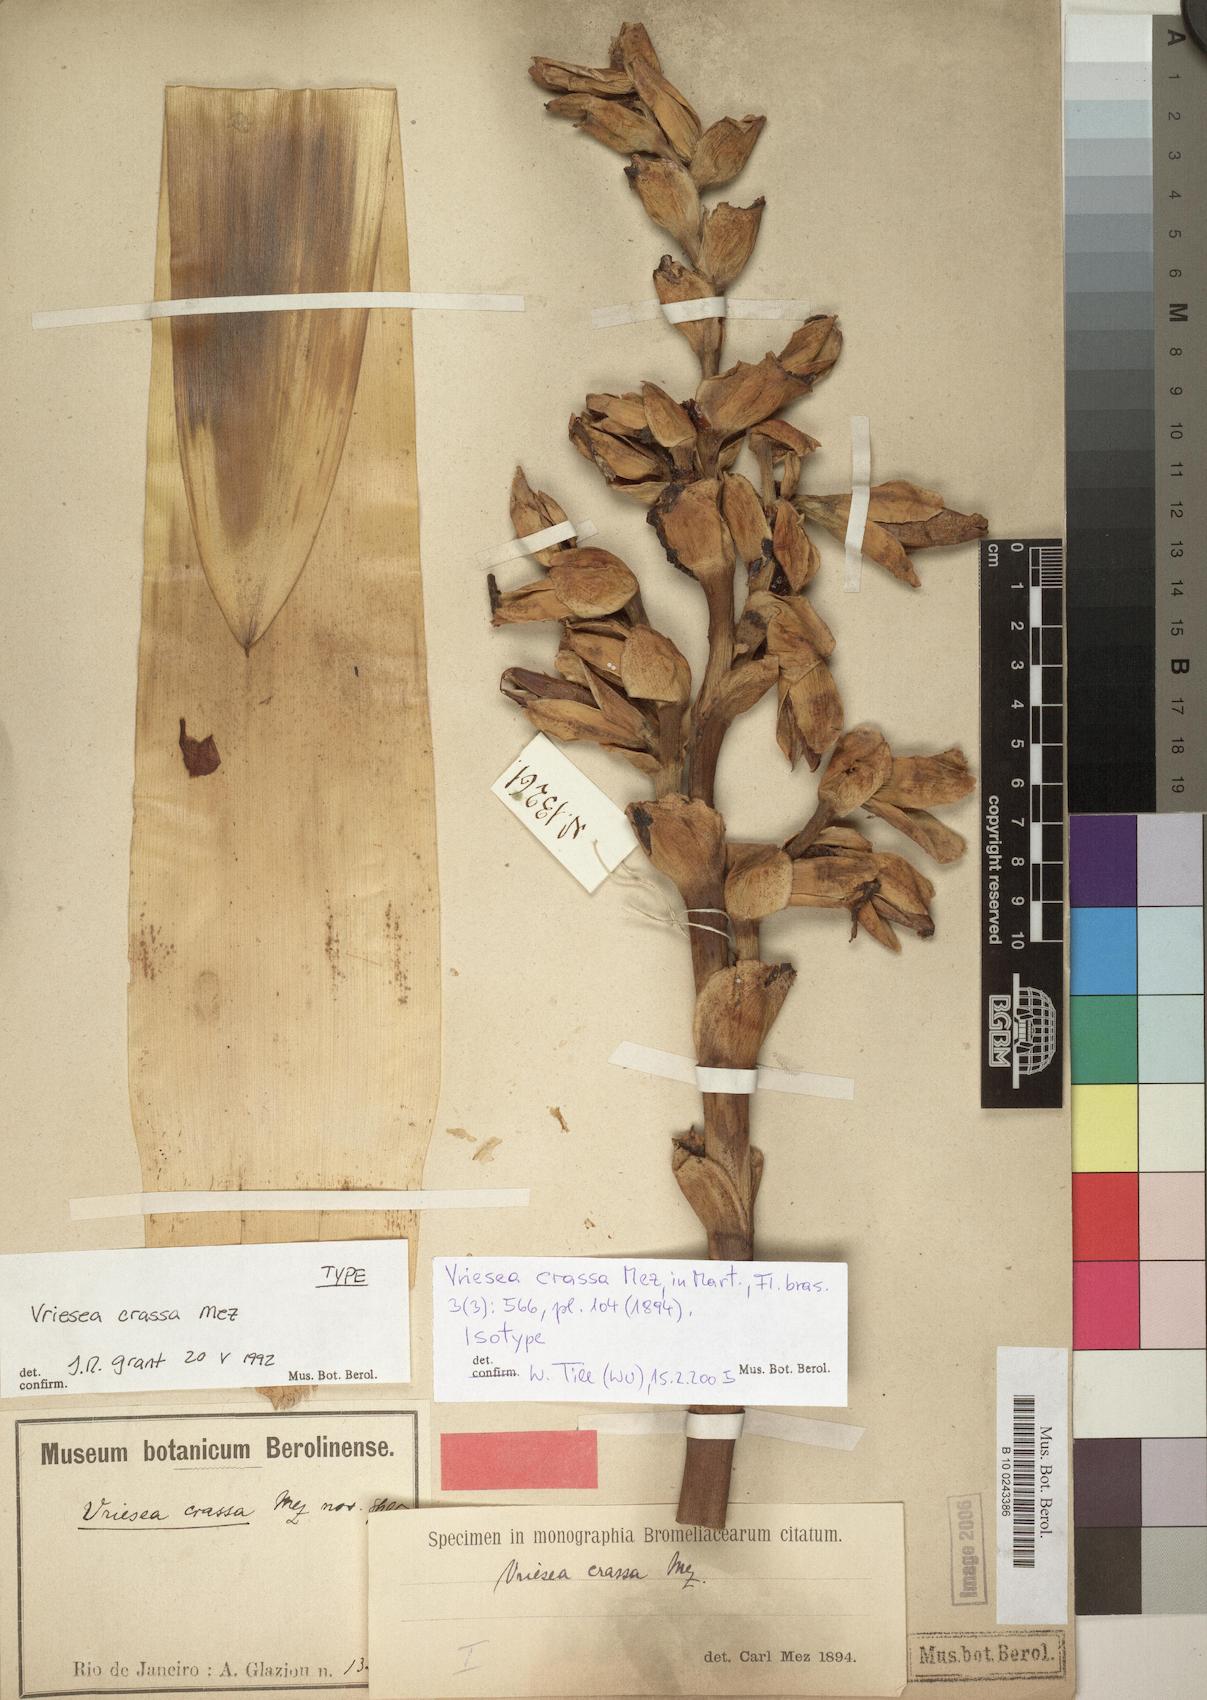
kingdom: Plantae
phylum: Tracheophyta
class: Liliopsida
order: Poales
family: Bromeliaceae
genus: Vriesea
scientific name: Vriesea crassa
